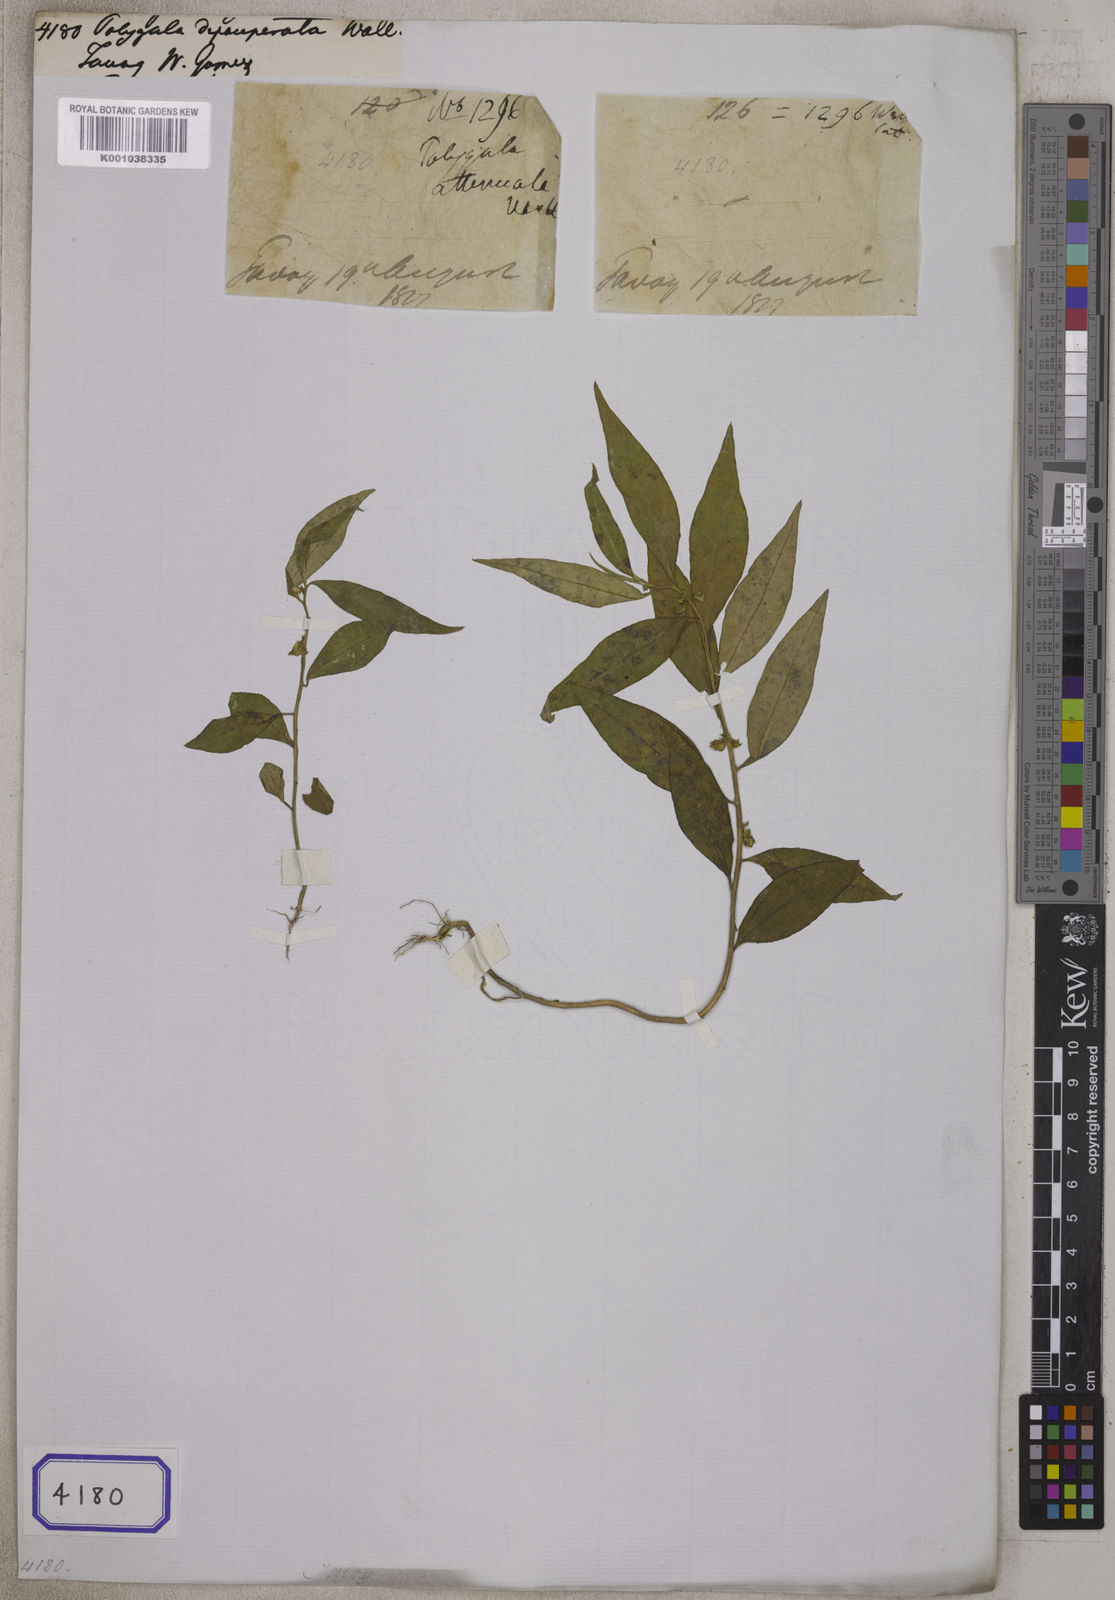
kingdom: Plantae
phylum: Tracheophyta
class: Magnoliopsida
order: Fabales
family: Polygalaceae
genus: Polygala
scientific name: Polygala glomerata
